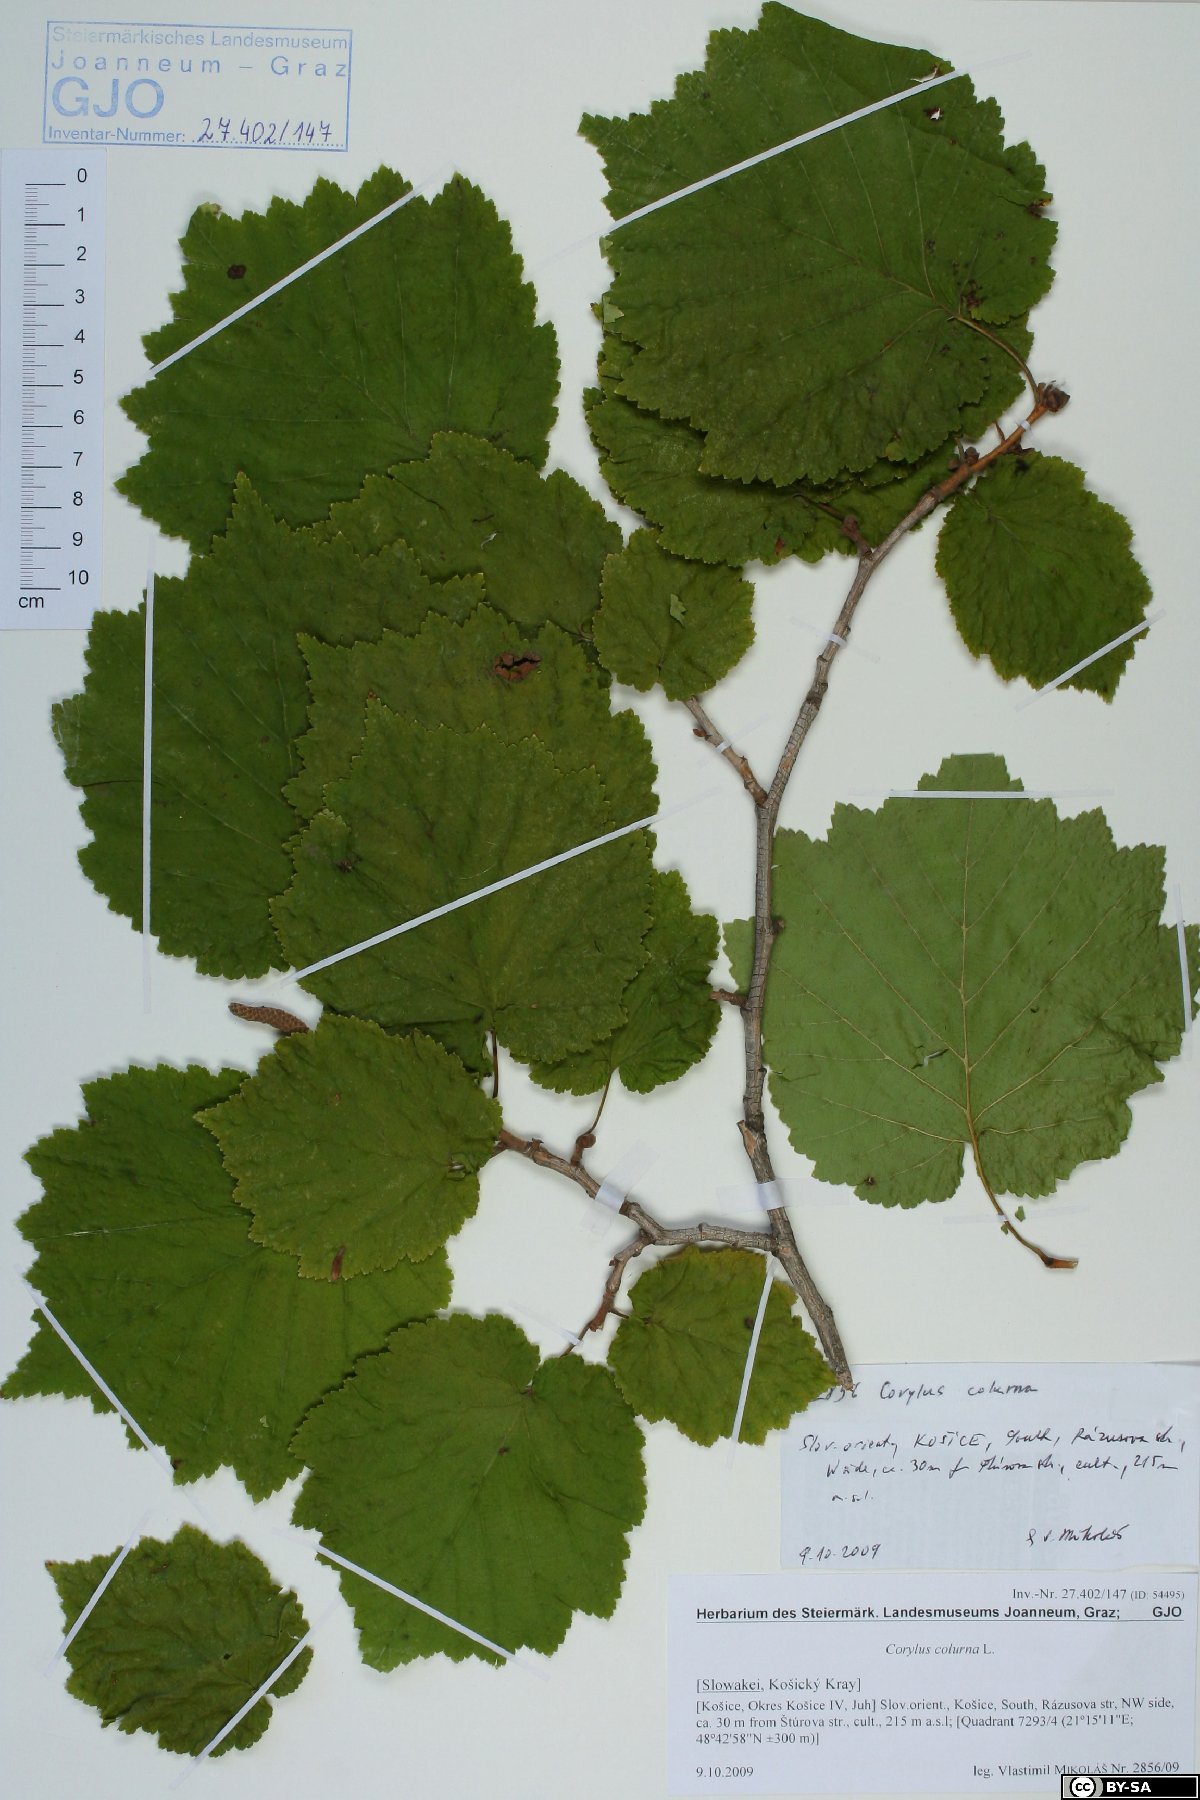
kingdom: Plantae
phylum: Tracheophyta
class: Magnoliopsida
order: Fagales
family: Betulaceae
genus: Corylus
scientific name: Corylus colurna
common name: Turkish hazel
